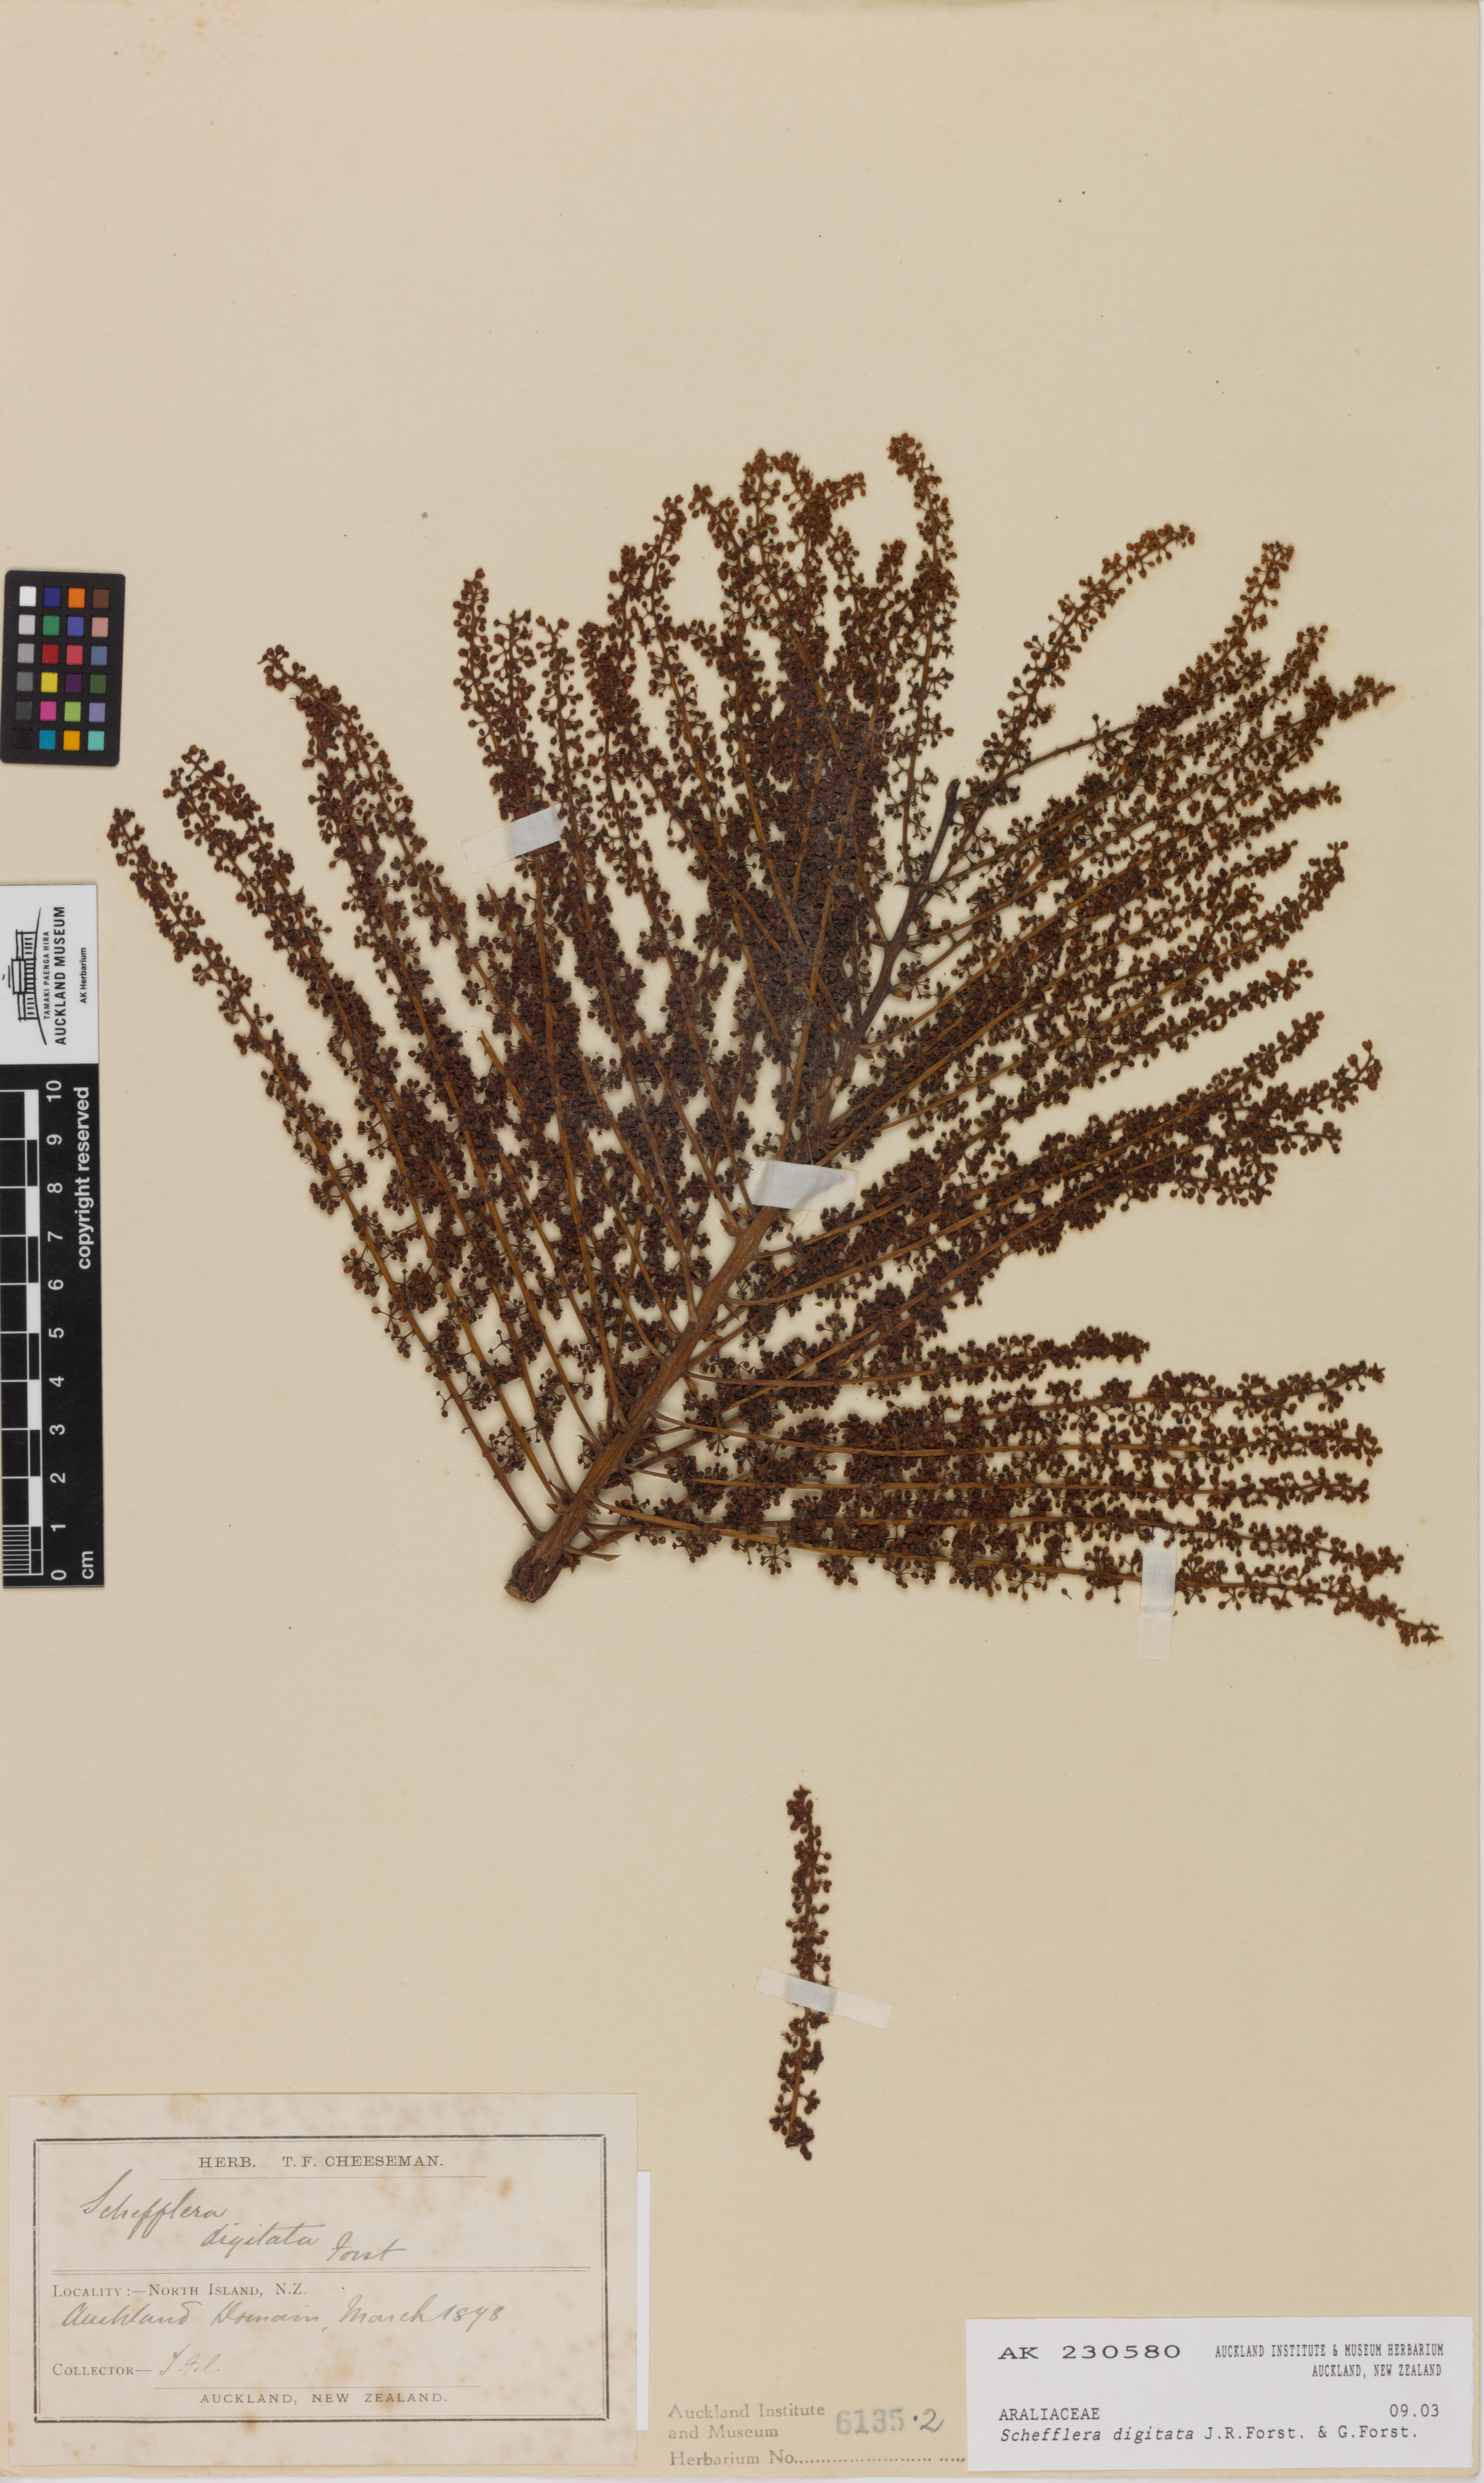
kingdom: Plantae
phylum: Tracheophyta
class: Magnoliopsida
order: Apiales
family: Araliaceae
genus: Schefflera
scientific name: Schefflera digitata
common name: Pate
